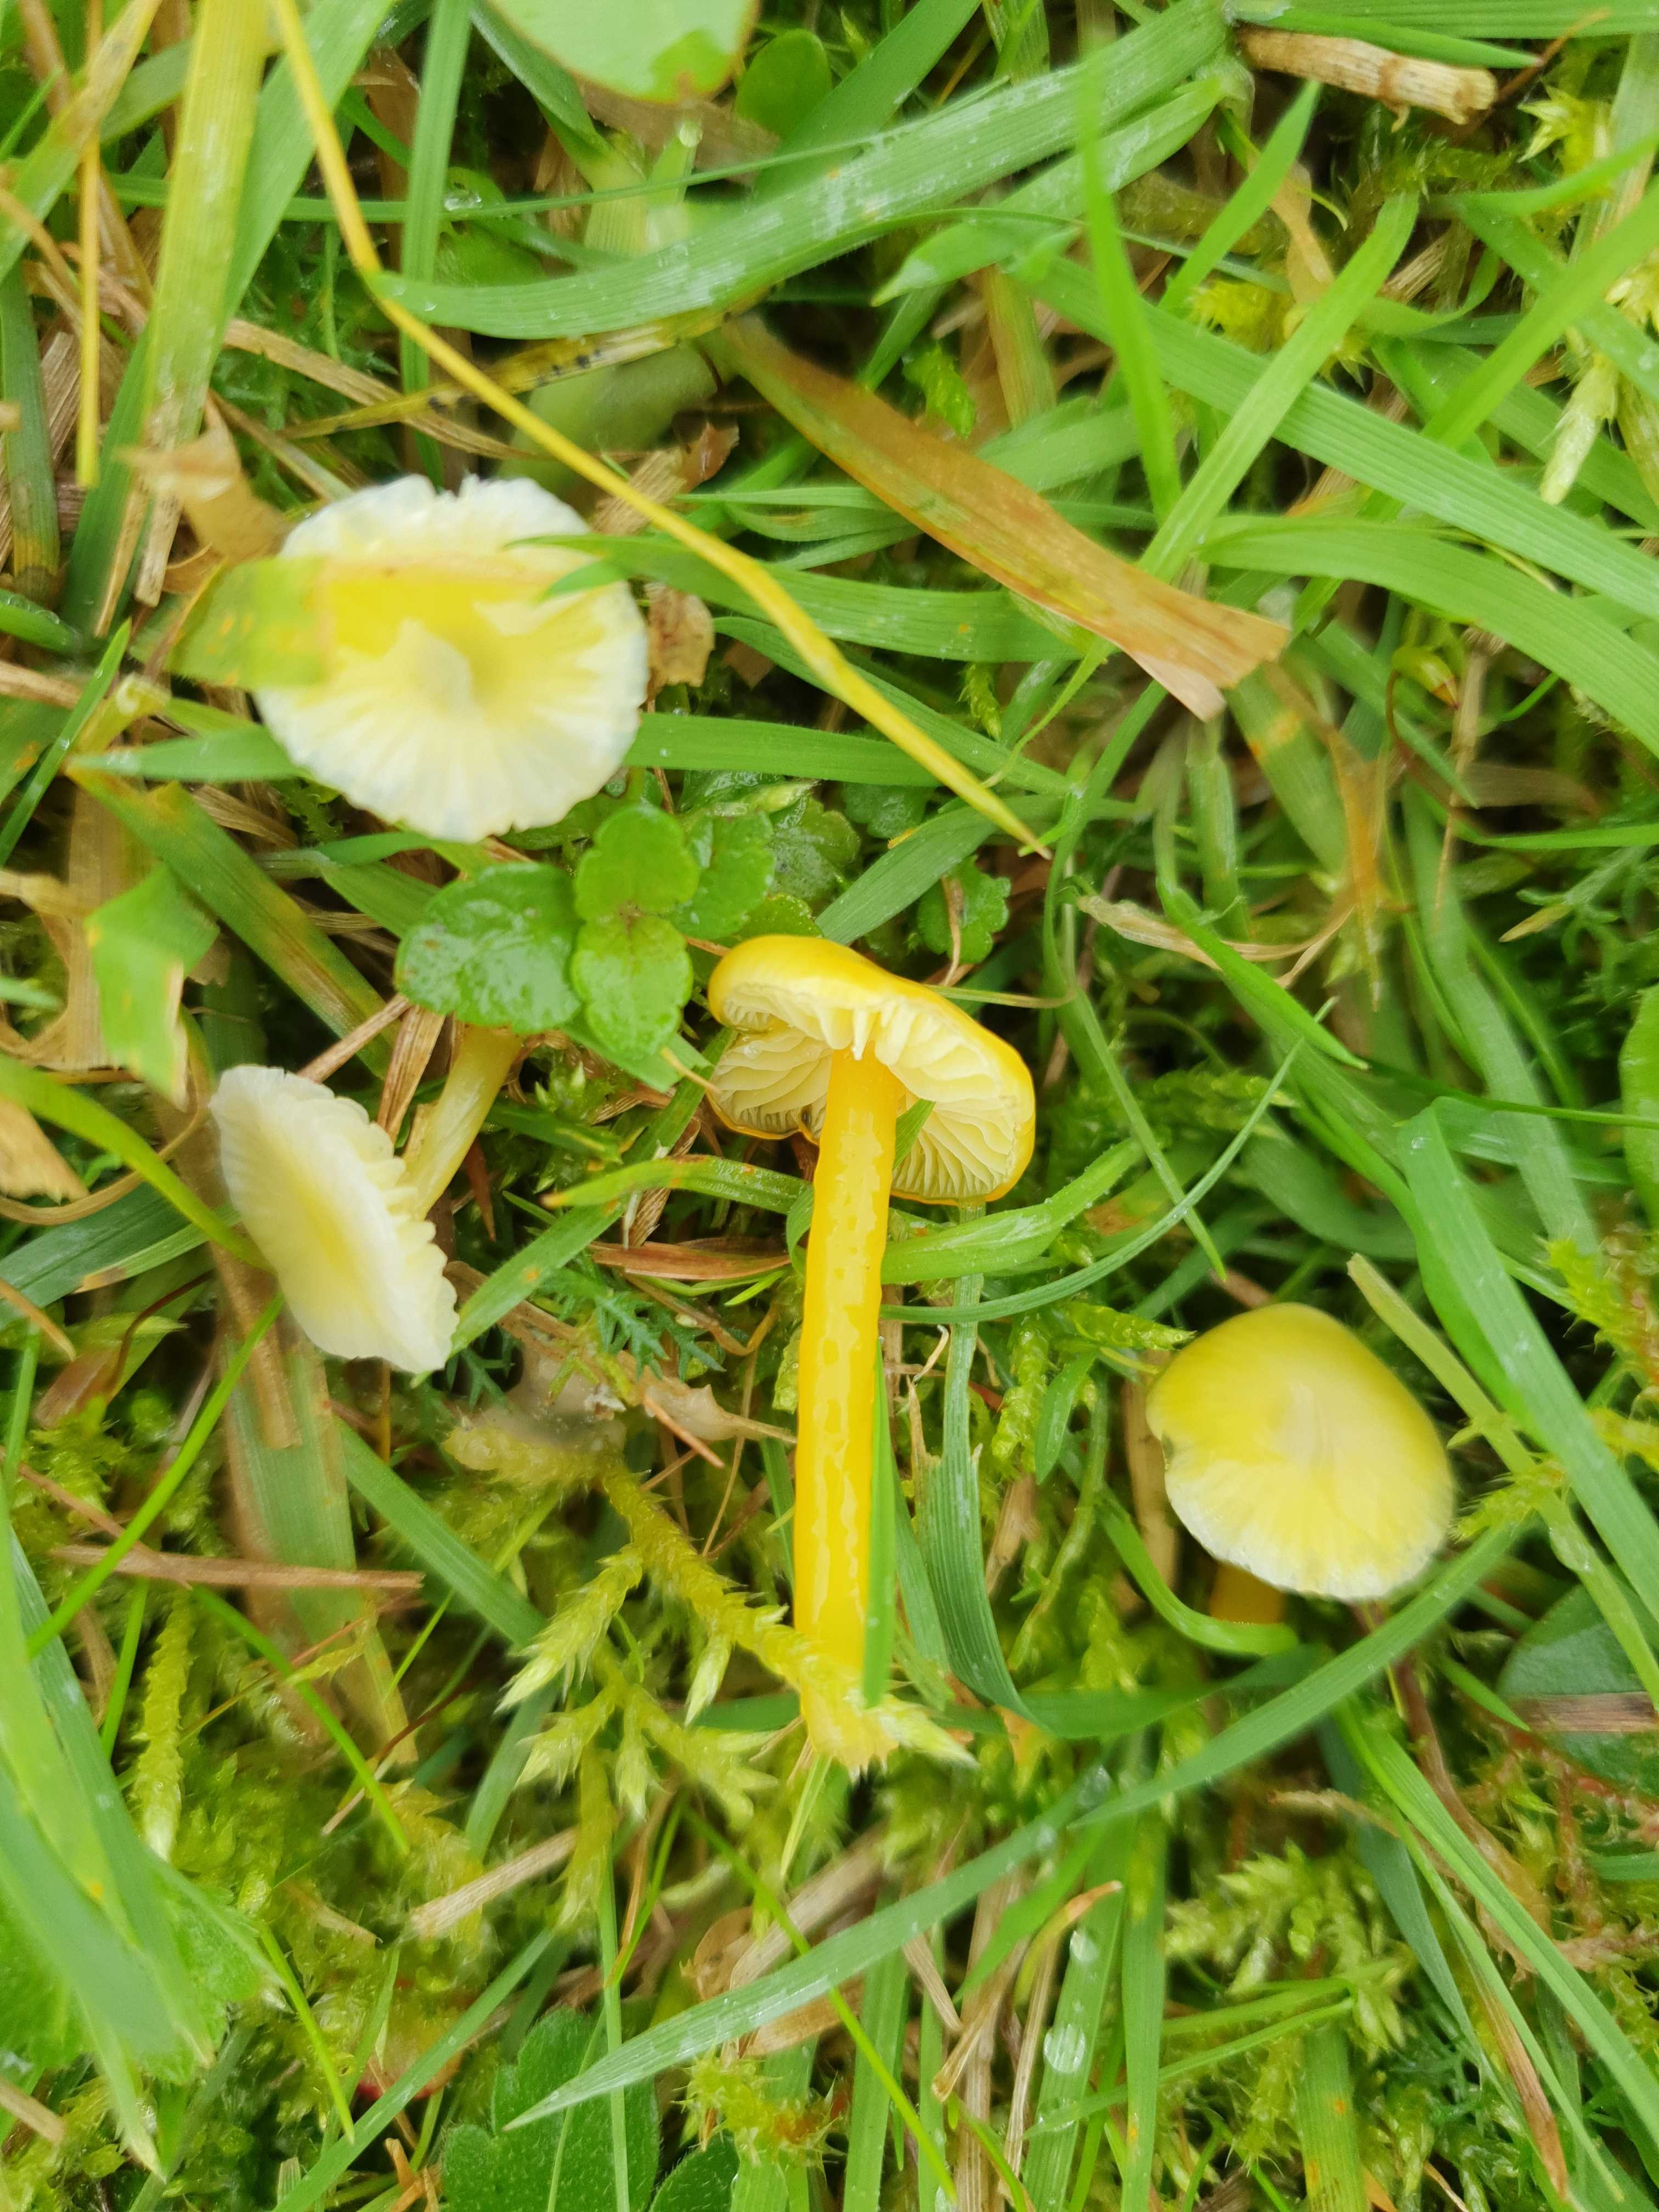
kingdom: Fungi
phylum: Basidiomycota
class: Agaricomycetes
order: Agaricales
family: Hygrophoraceae
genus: Hygrocybe
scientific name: Hygrocybe glutinipes
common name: slimstokket vokshat
